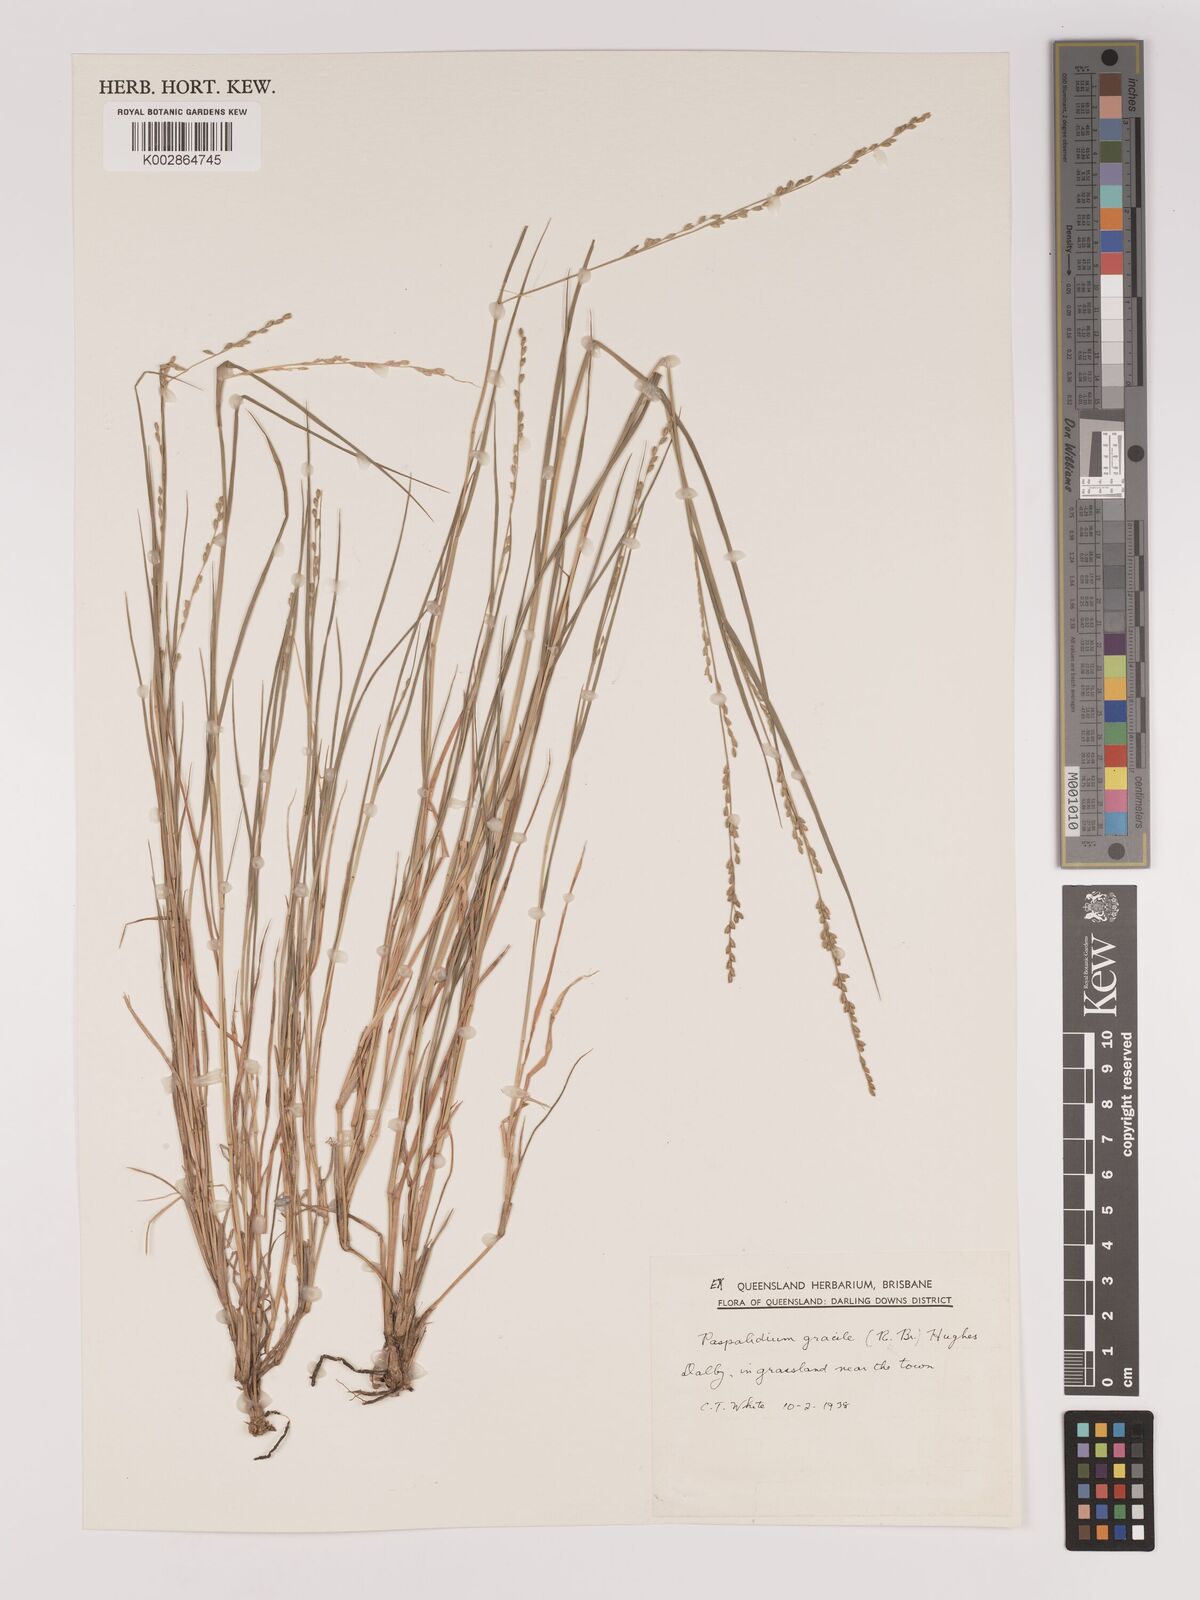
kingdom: Plantae
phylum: Tracheophyta
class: Liliopsida
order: Poales
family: Poaceae
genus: Setaria
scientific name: Setaria brownii
